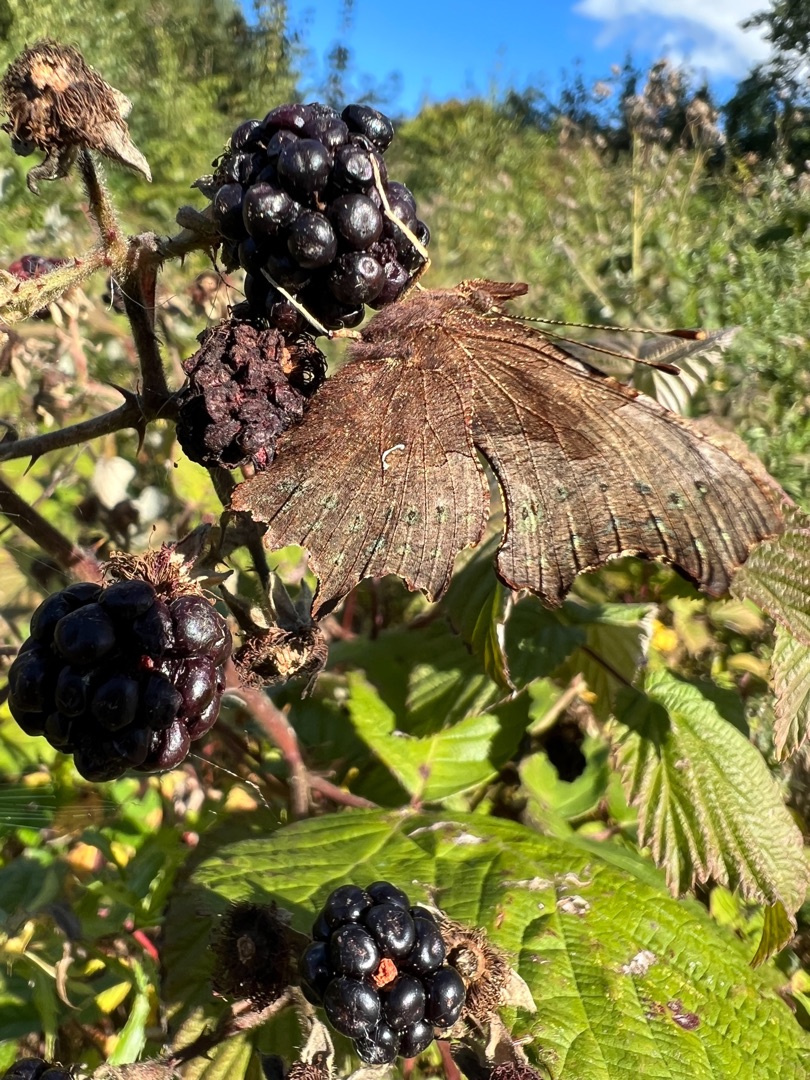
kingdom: Animalia
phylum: Arthropoda
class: Insecta
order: Lepidoptera
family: Nymphalidae
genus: Polygonia
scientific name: Polygonia c-album
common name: Det hvide C
